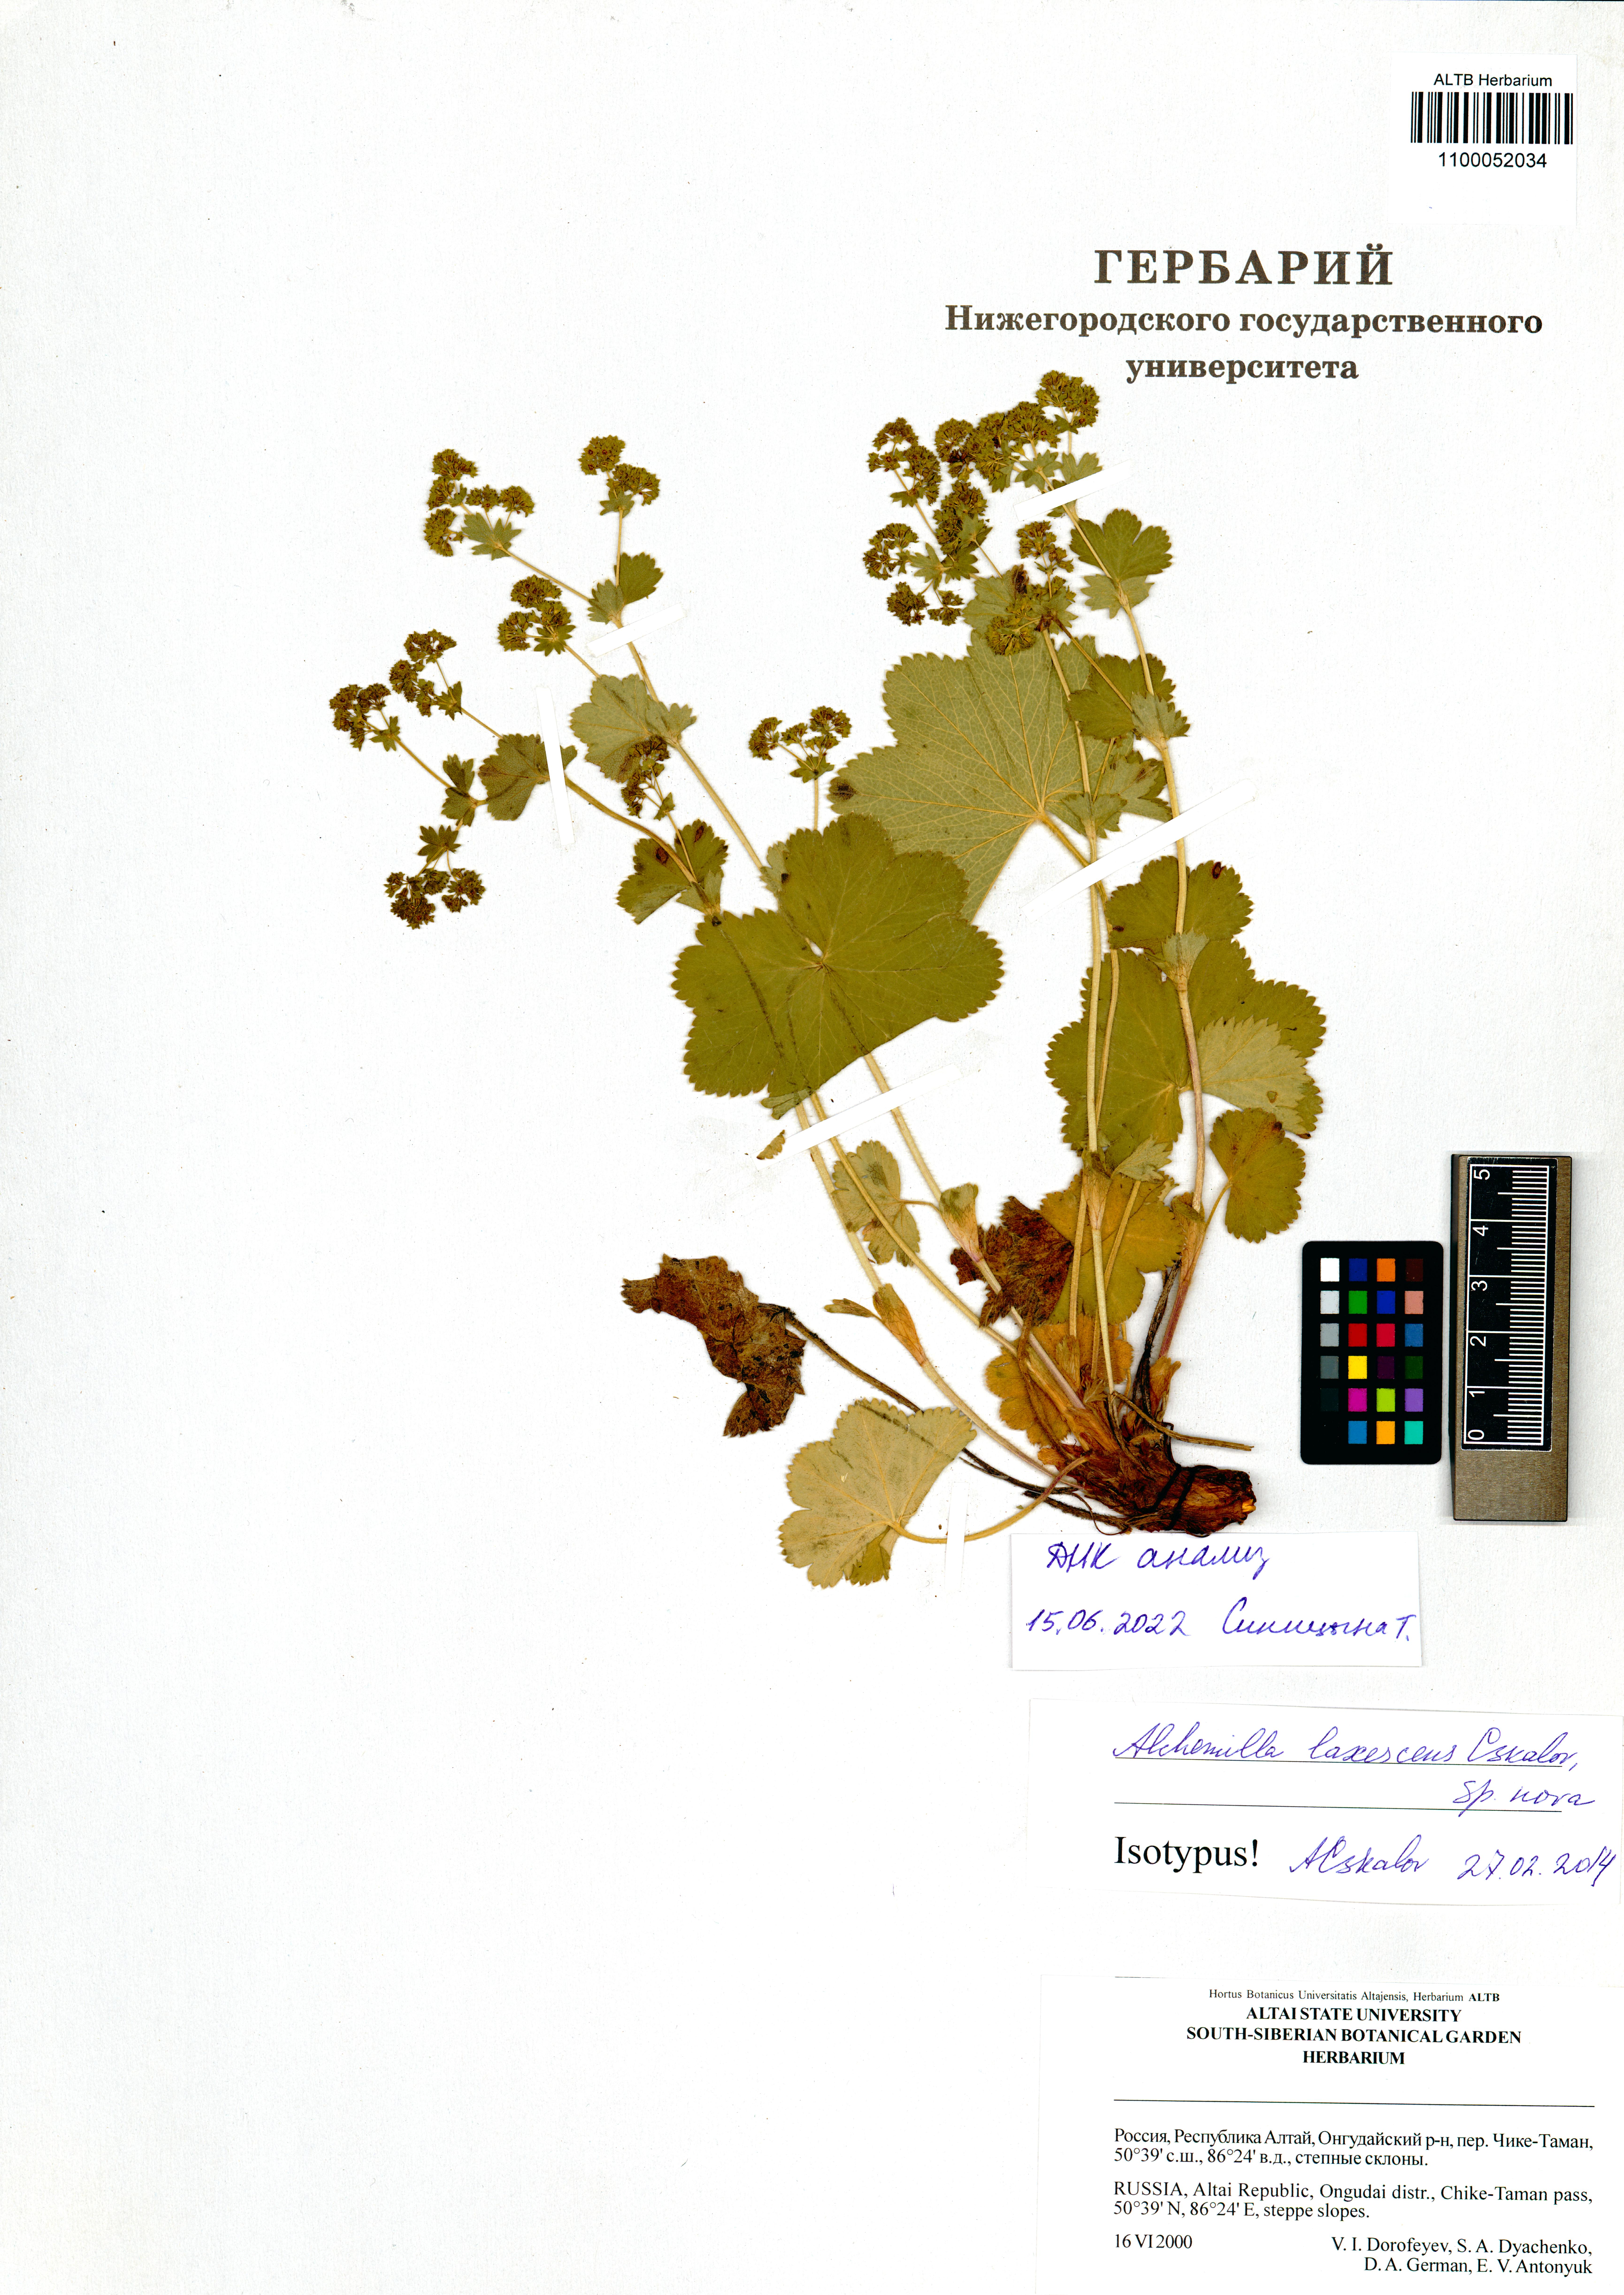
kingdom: Plantae
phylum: Tracheophyta
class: Magnoliopsida
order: Rosales
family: Rosaceae
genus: Alchemilla
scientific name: Alchemilla laxescens
